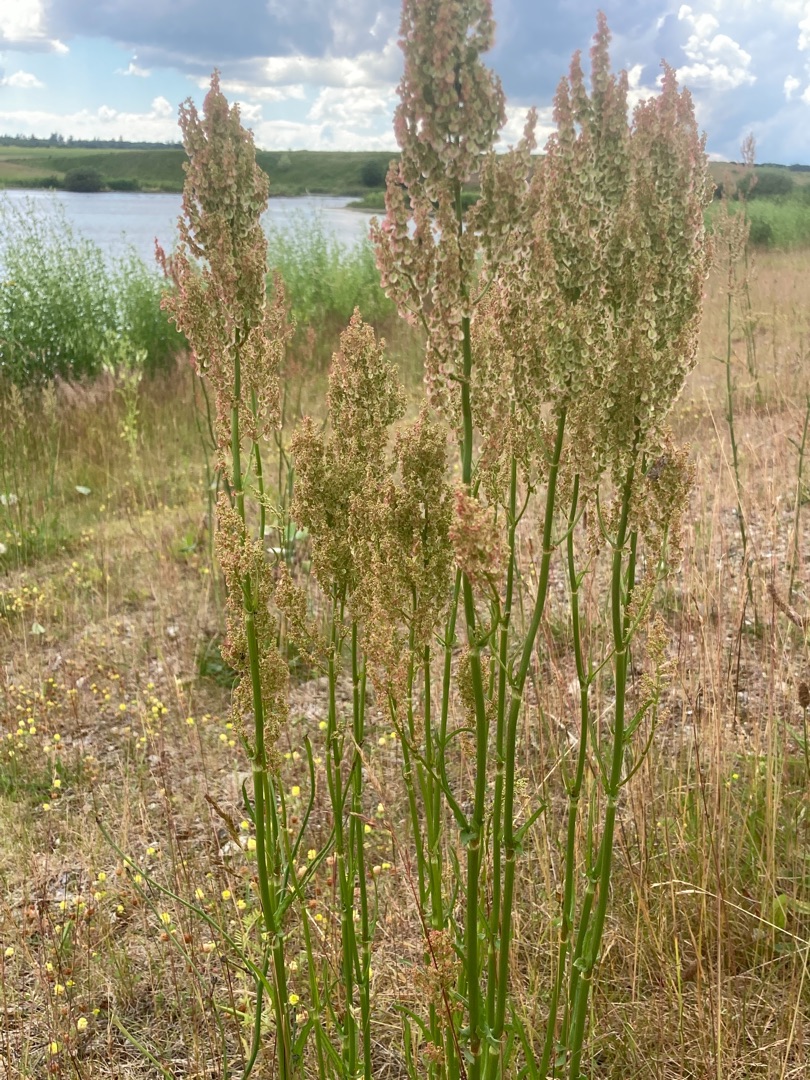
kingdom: Plantae
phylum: Tracheophyta
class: Magnoliopsida
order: Caryophyllales
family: Polygonaceae
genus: Rumex
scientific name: Rumex thyrsiflorus
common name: Dusk-syre
